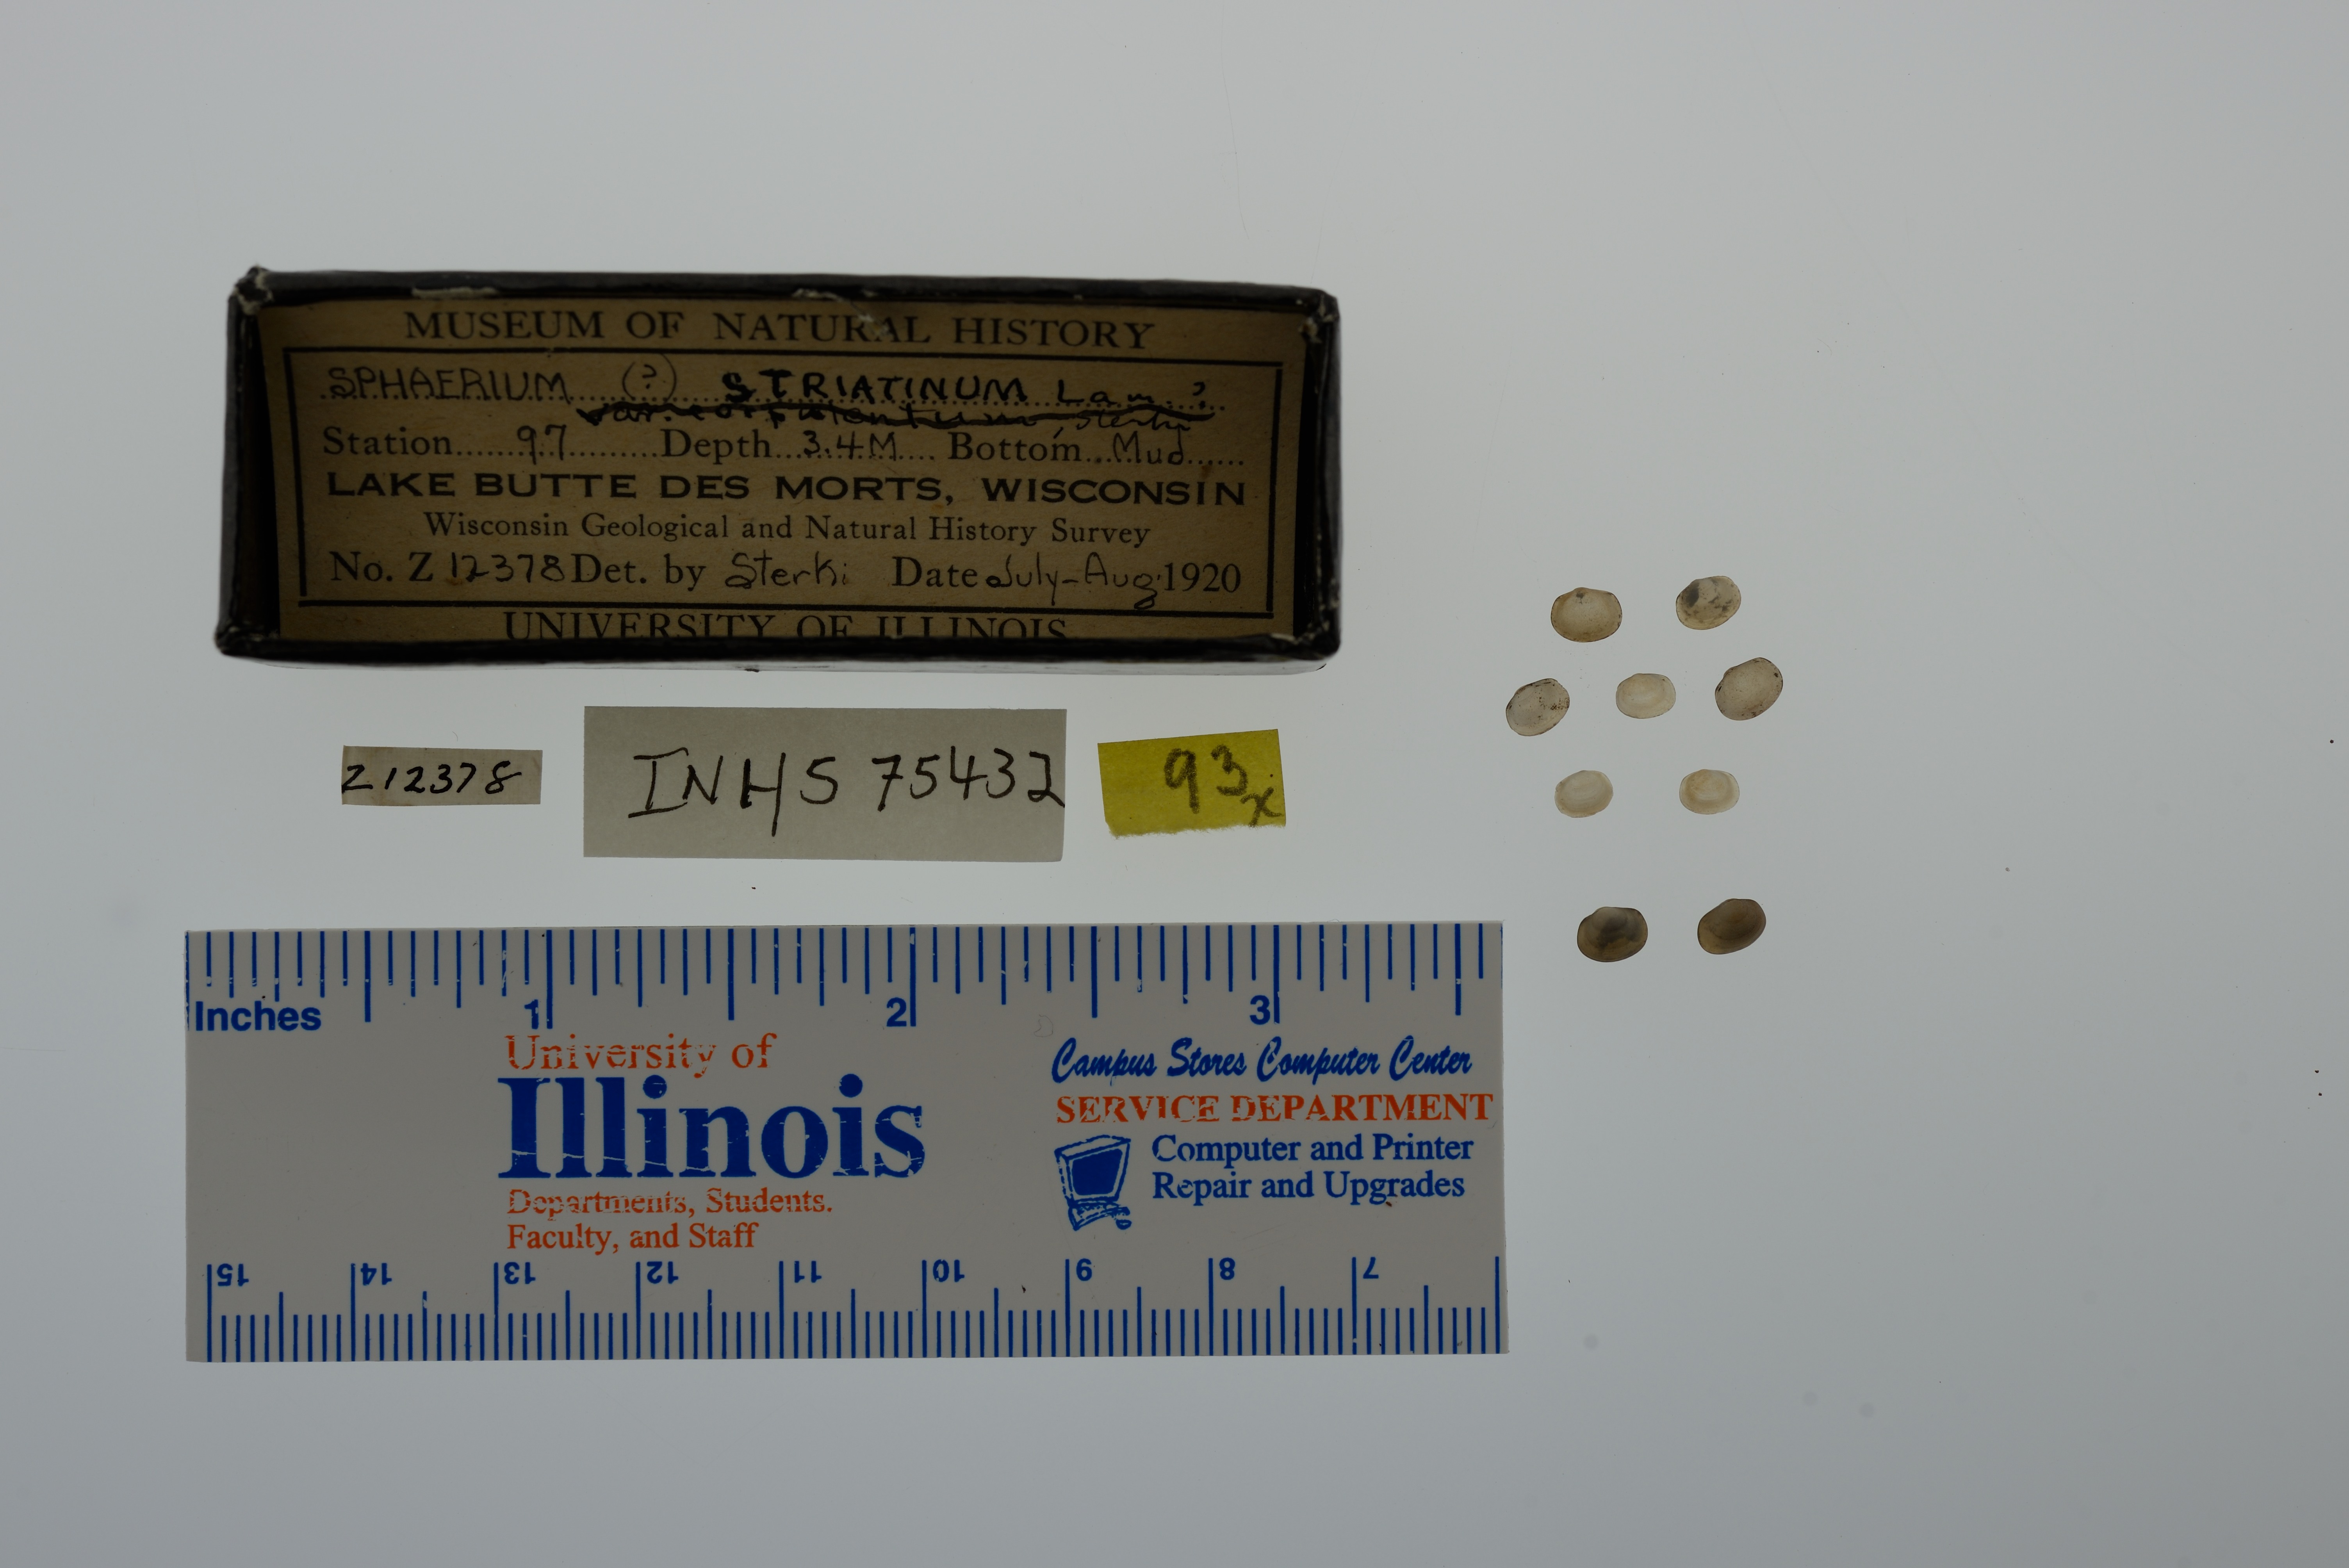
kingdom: Animalia
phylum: Mollusca
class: Bivalvia
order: Sphaeriida
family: Sphaeriidae
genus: Sphaerium
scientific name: Sphaerium striatinum
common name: Striated fingernailclam
